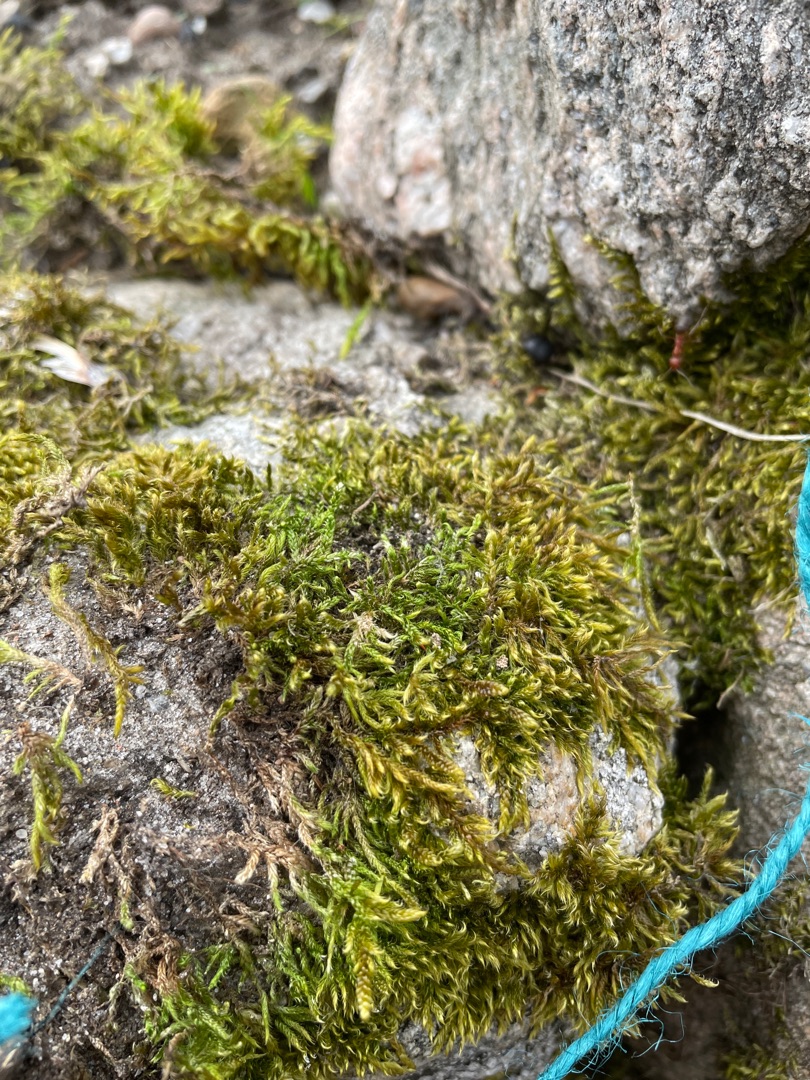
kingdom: Plantae
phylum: Bryophyta
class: Bryopsida
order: Hypnales
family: Hypnaceae
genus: Hypnum
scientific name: Hypnum cupressiforme
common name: Almindelig cypresmos
